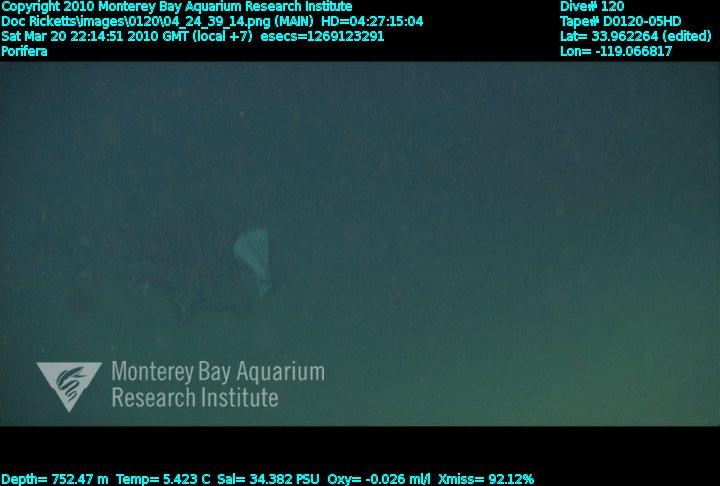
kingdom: Animalia
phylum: Porifera
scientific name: Porifera
